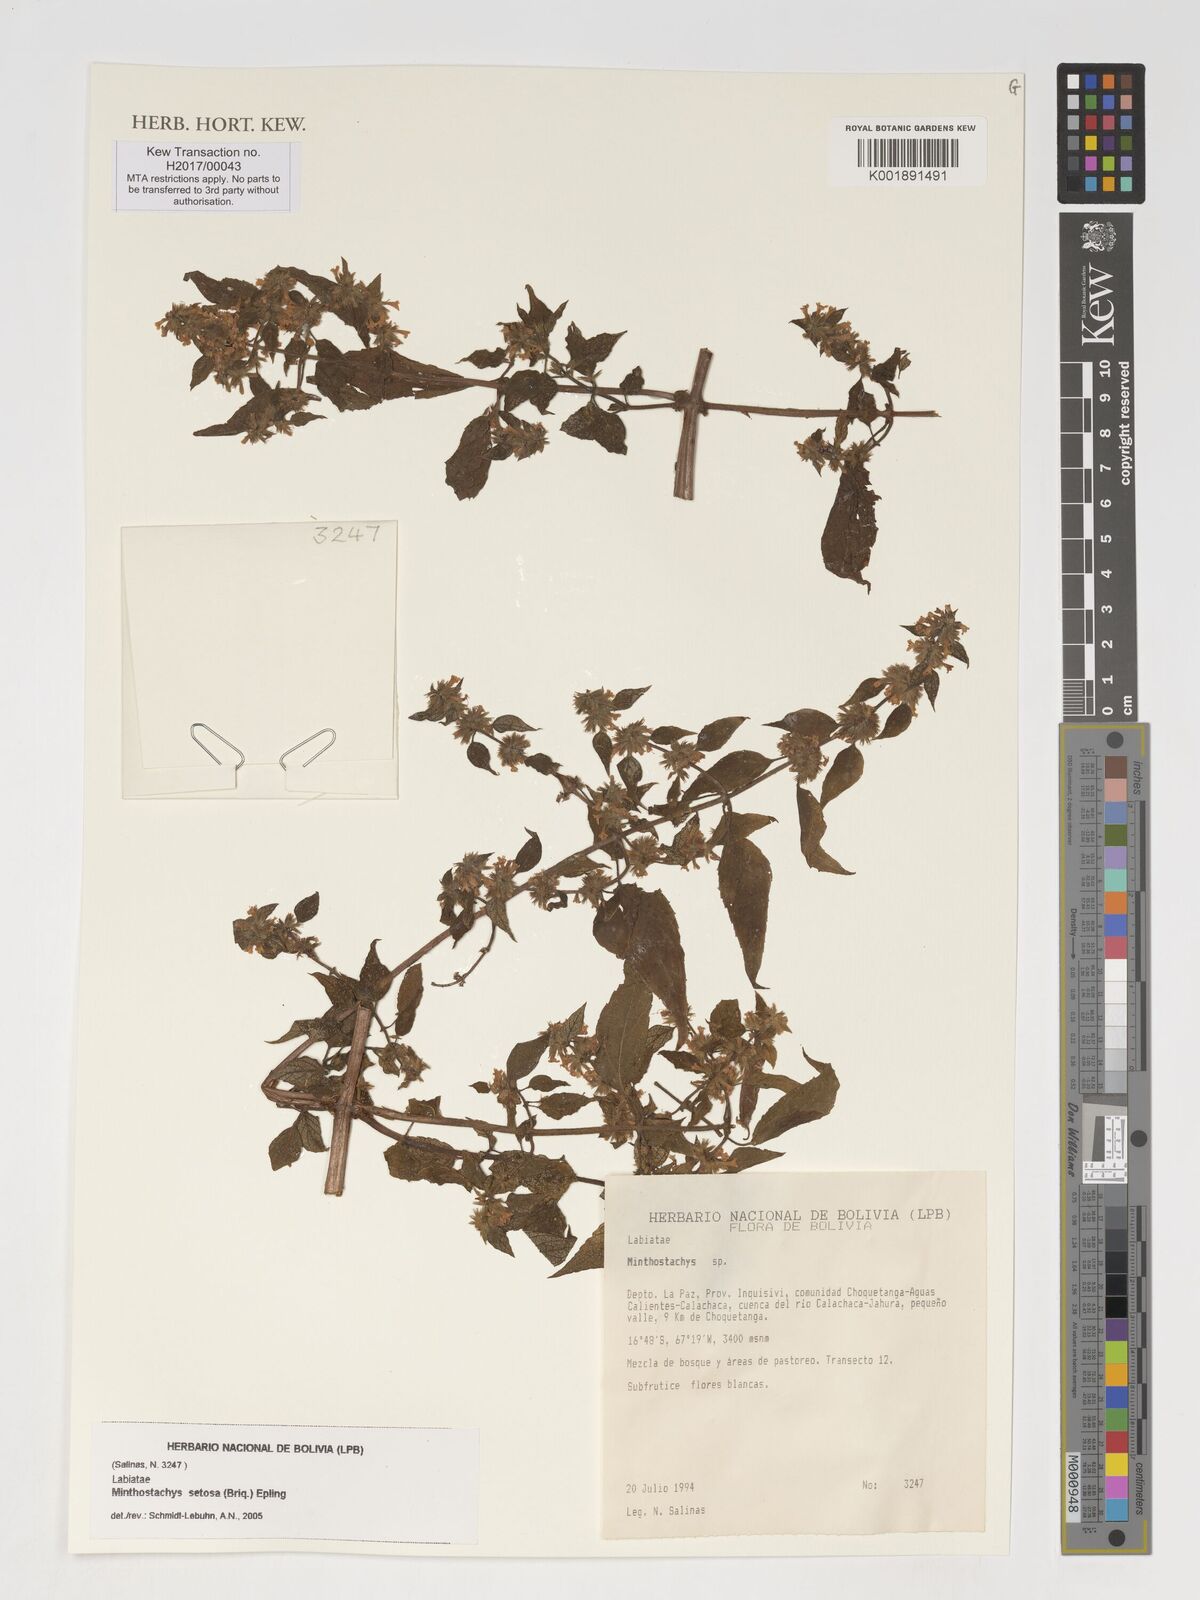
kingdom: Plantae
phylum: Tracheophyta
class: Magnoliopsida
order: Lamiales
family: Lamiaceae
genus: Minthostachys
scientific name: Minthostachys setosa
